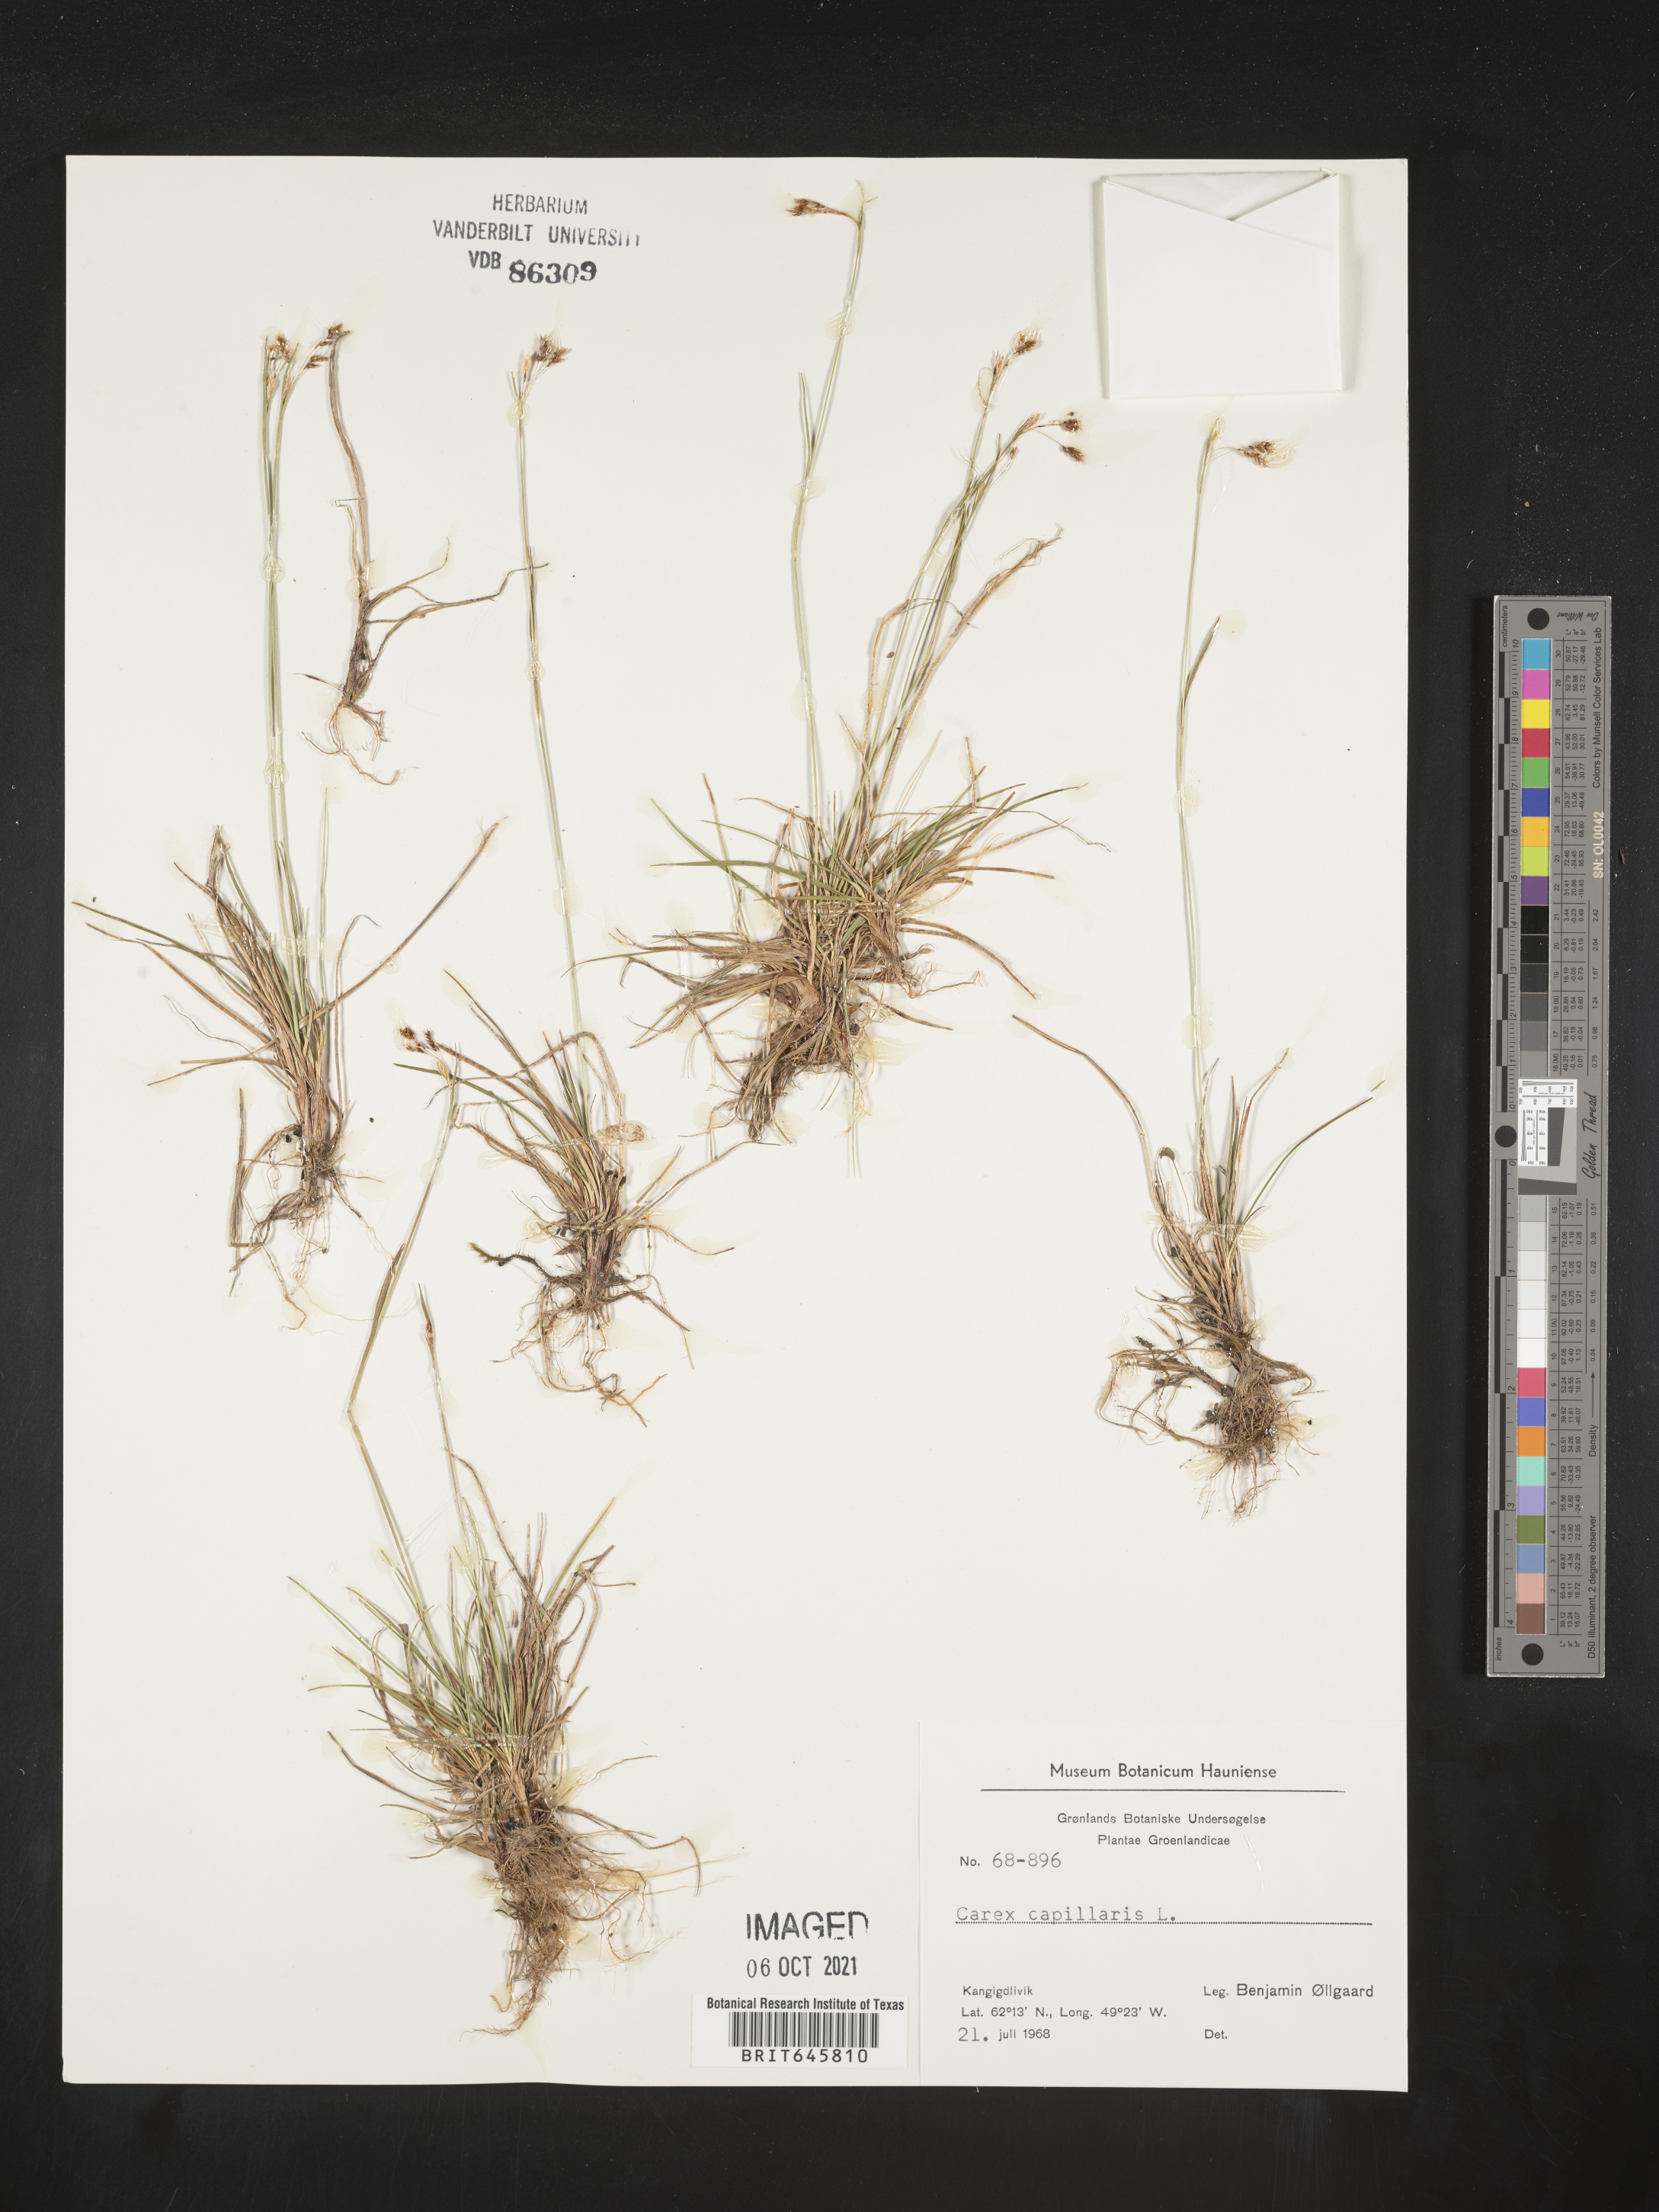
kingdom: Plantae
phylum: Tracheophyta
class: Liliopsida
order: Poales
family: Cyperaceae
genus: Carex
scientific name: Carex capillaris
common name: Hair sedge
